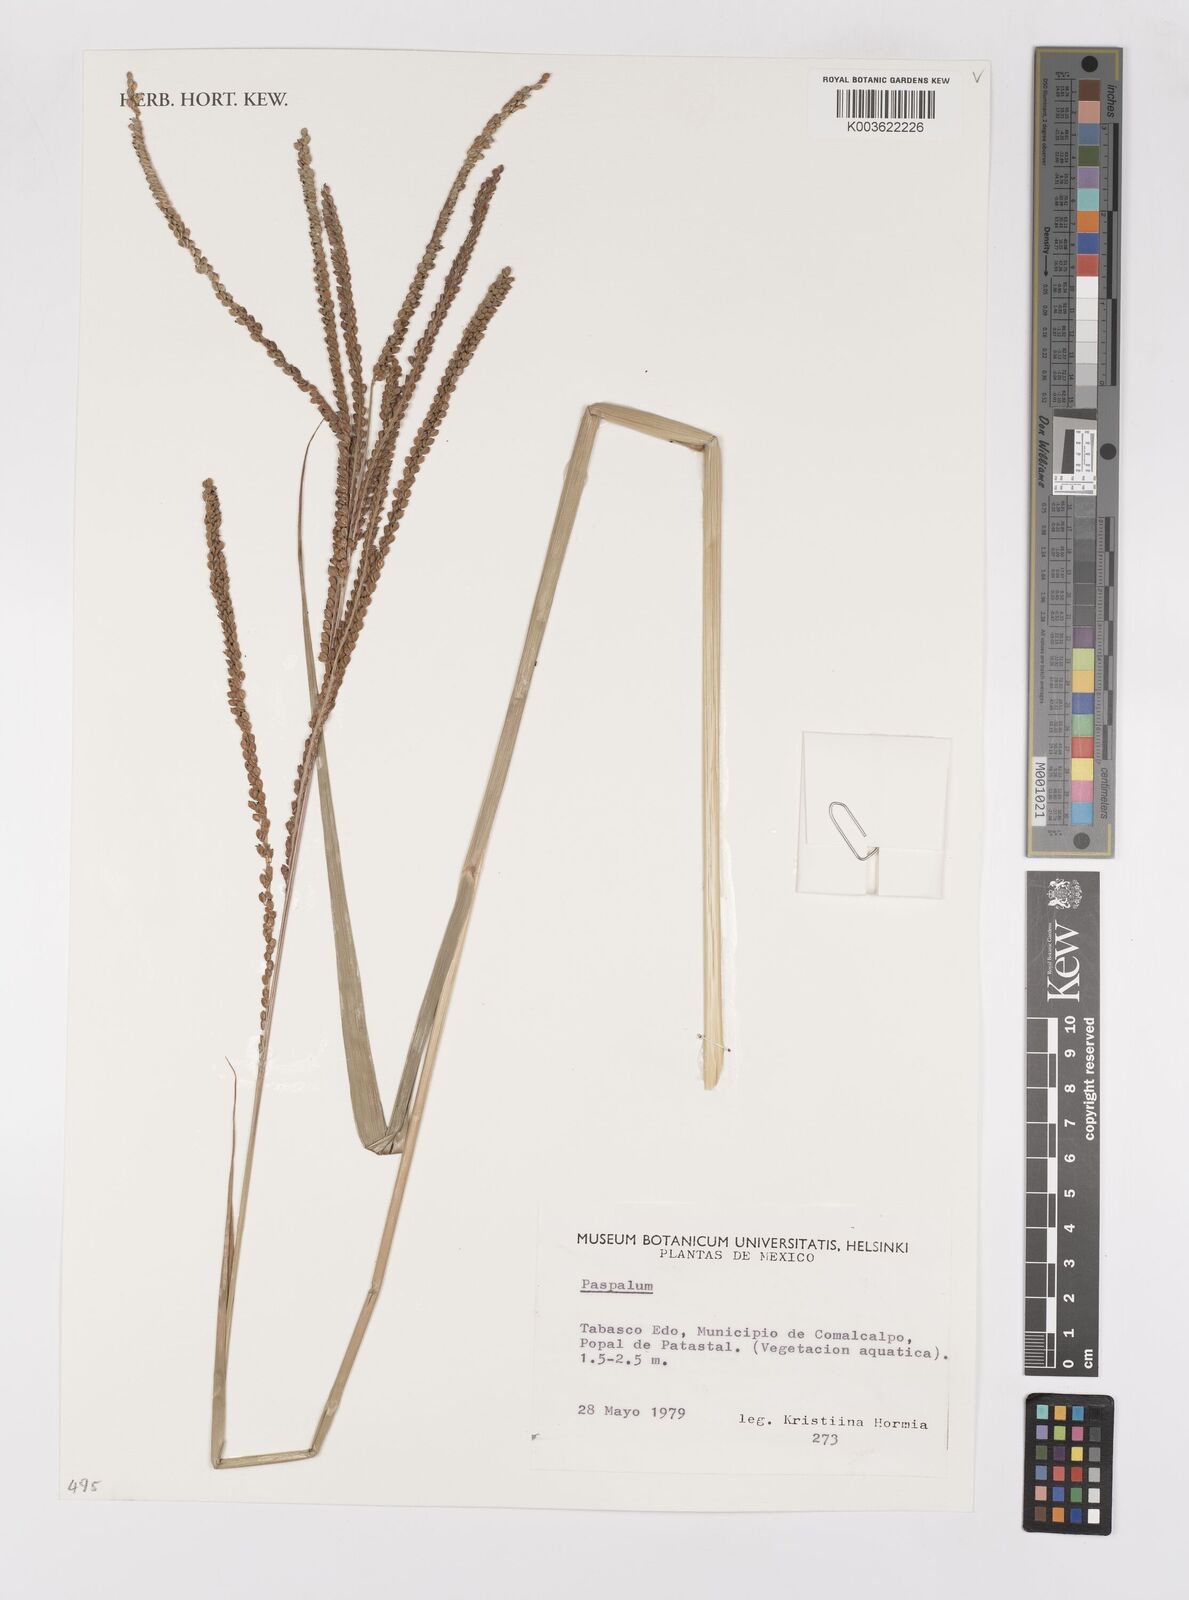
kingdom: Plantae
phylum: Tracheophyta
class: Liliopsida
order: Poales
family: Poaceae
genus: Paspalum
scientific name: Paspalum
